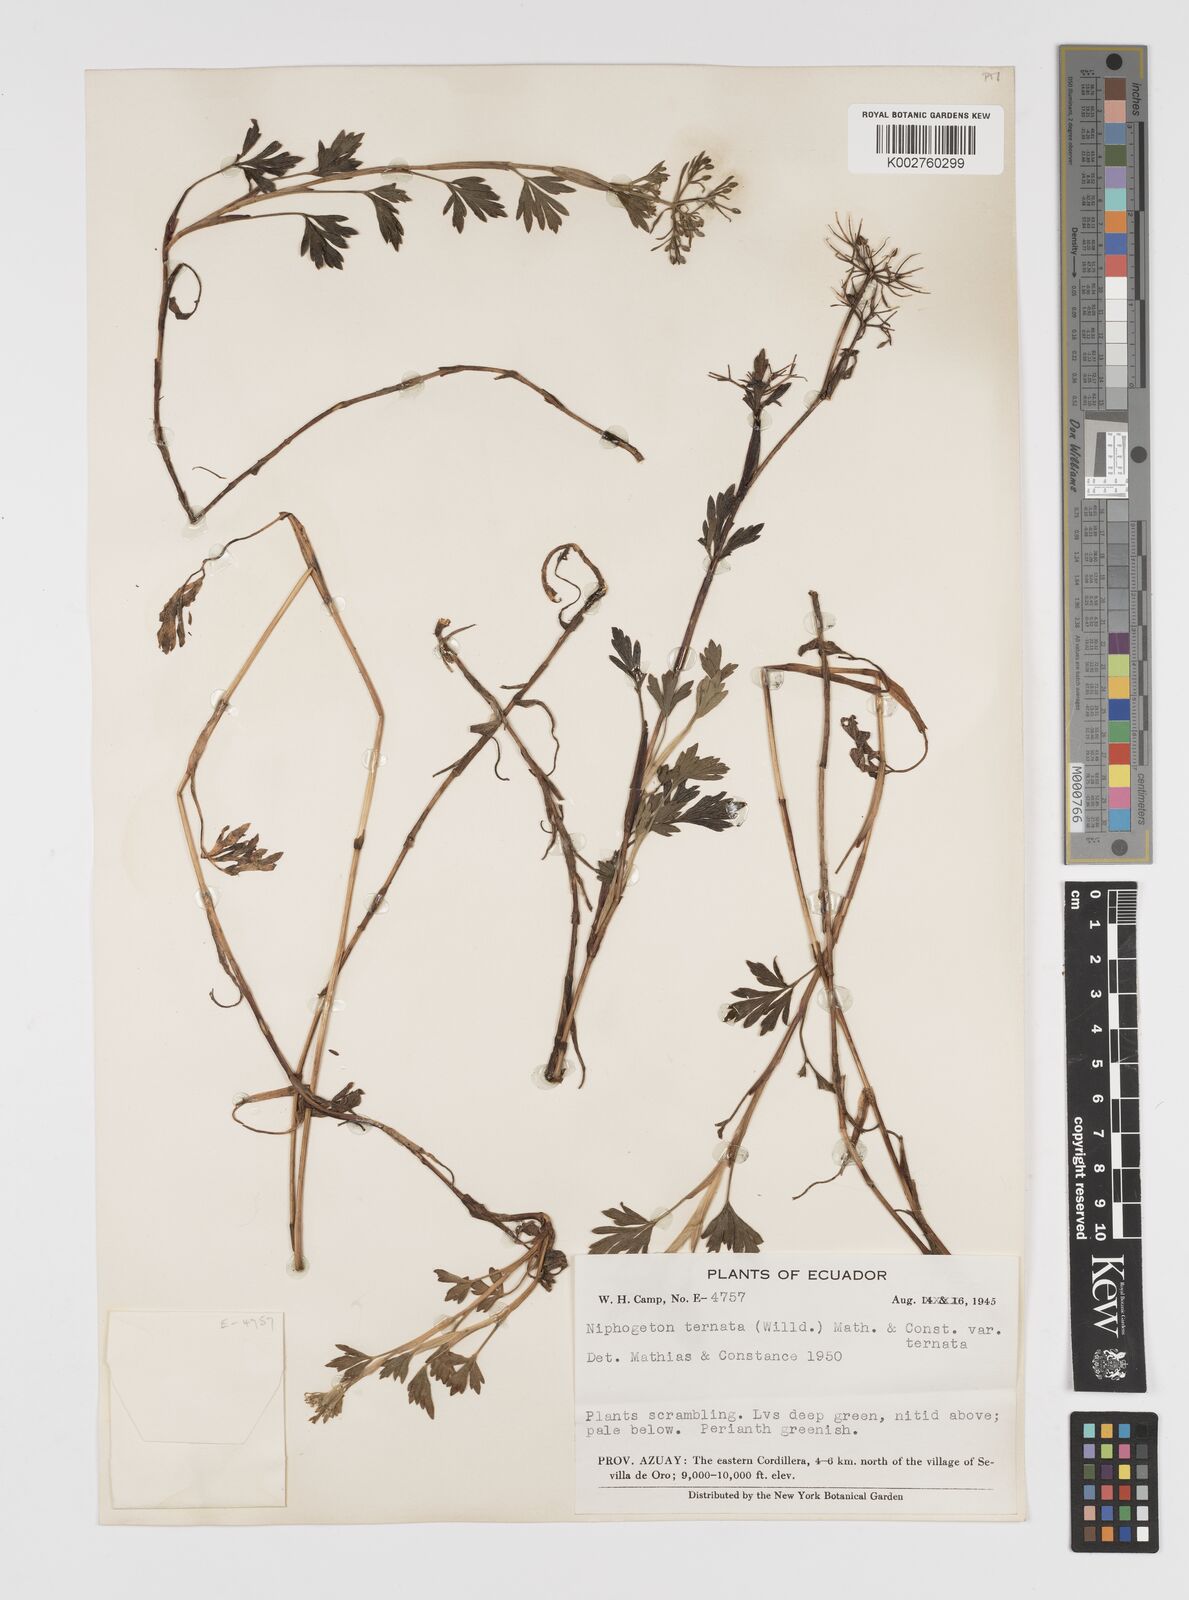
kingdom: Plantae
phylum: Tracheophyta
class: Magnoliopsida
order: Apiales
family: Apiaceae
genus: Niphogeton
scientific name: Niphogeton ternata
